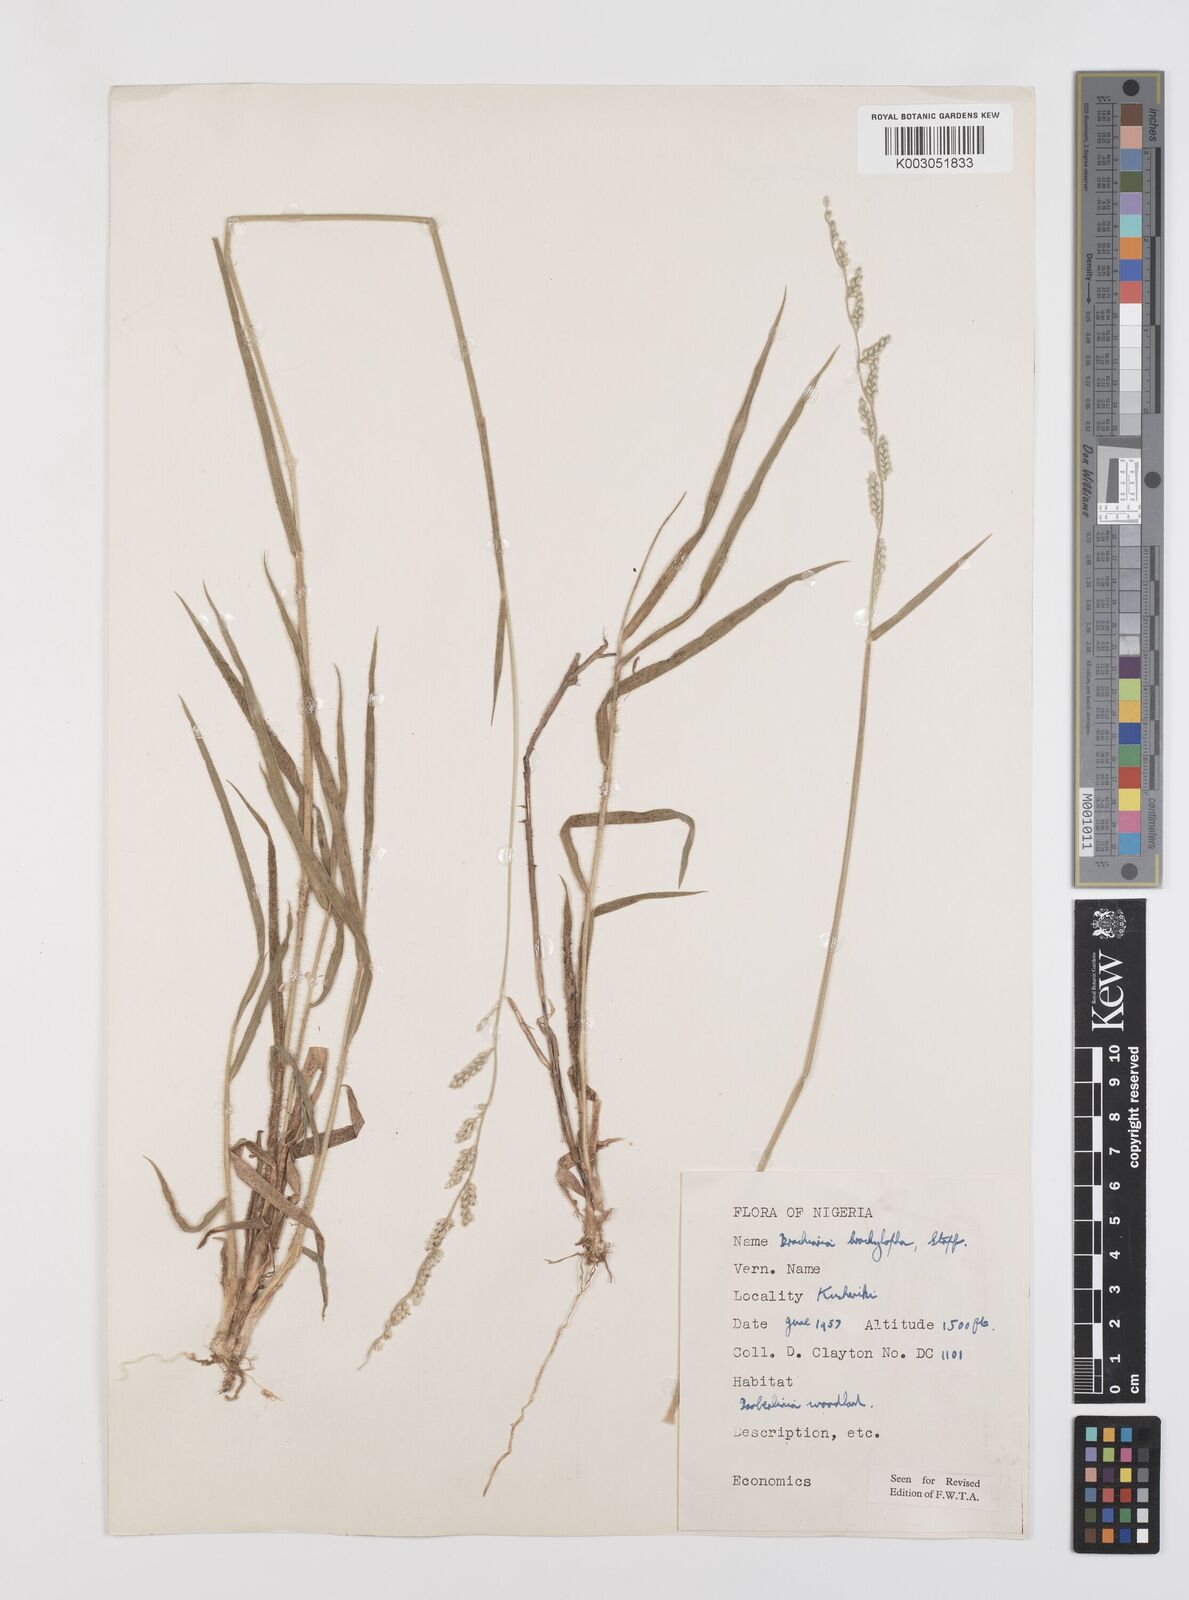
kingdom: Plantae
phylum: Tracheophyta
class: Liliopsida
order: Poales
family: Poaceae
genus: Urochloa
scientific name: Urochloa serrata
